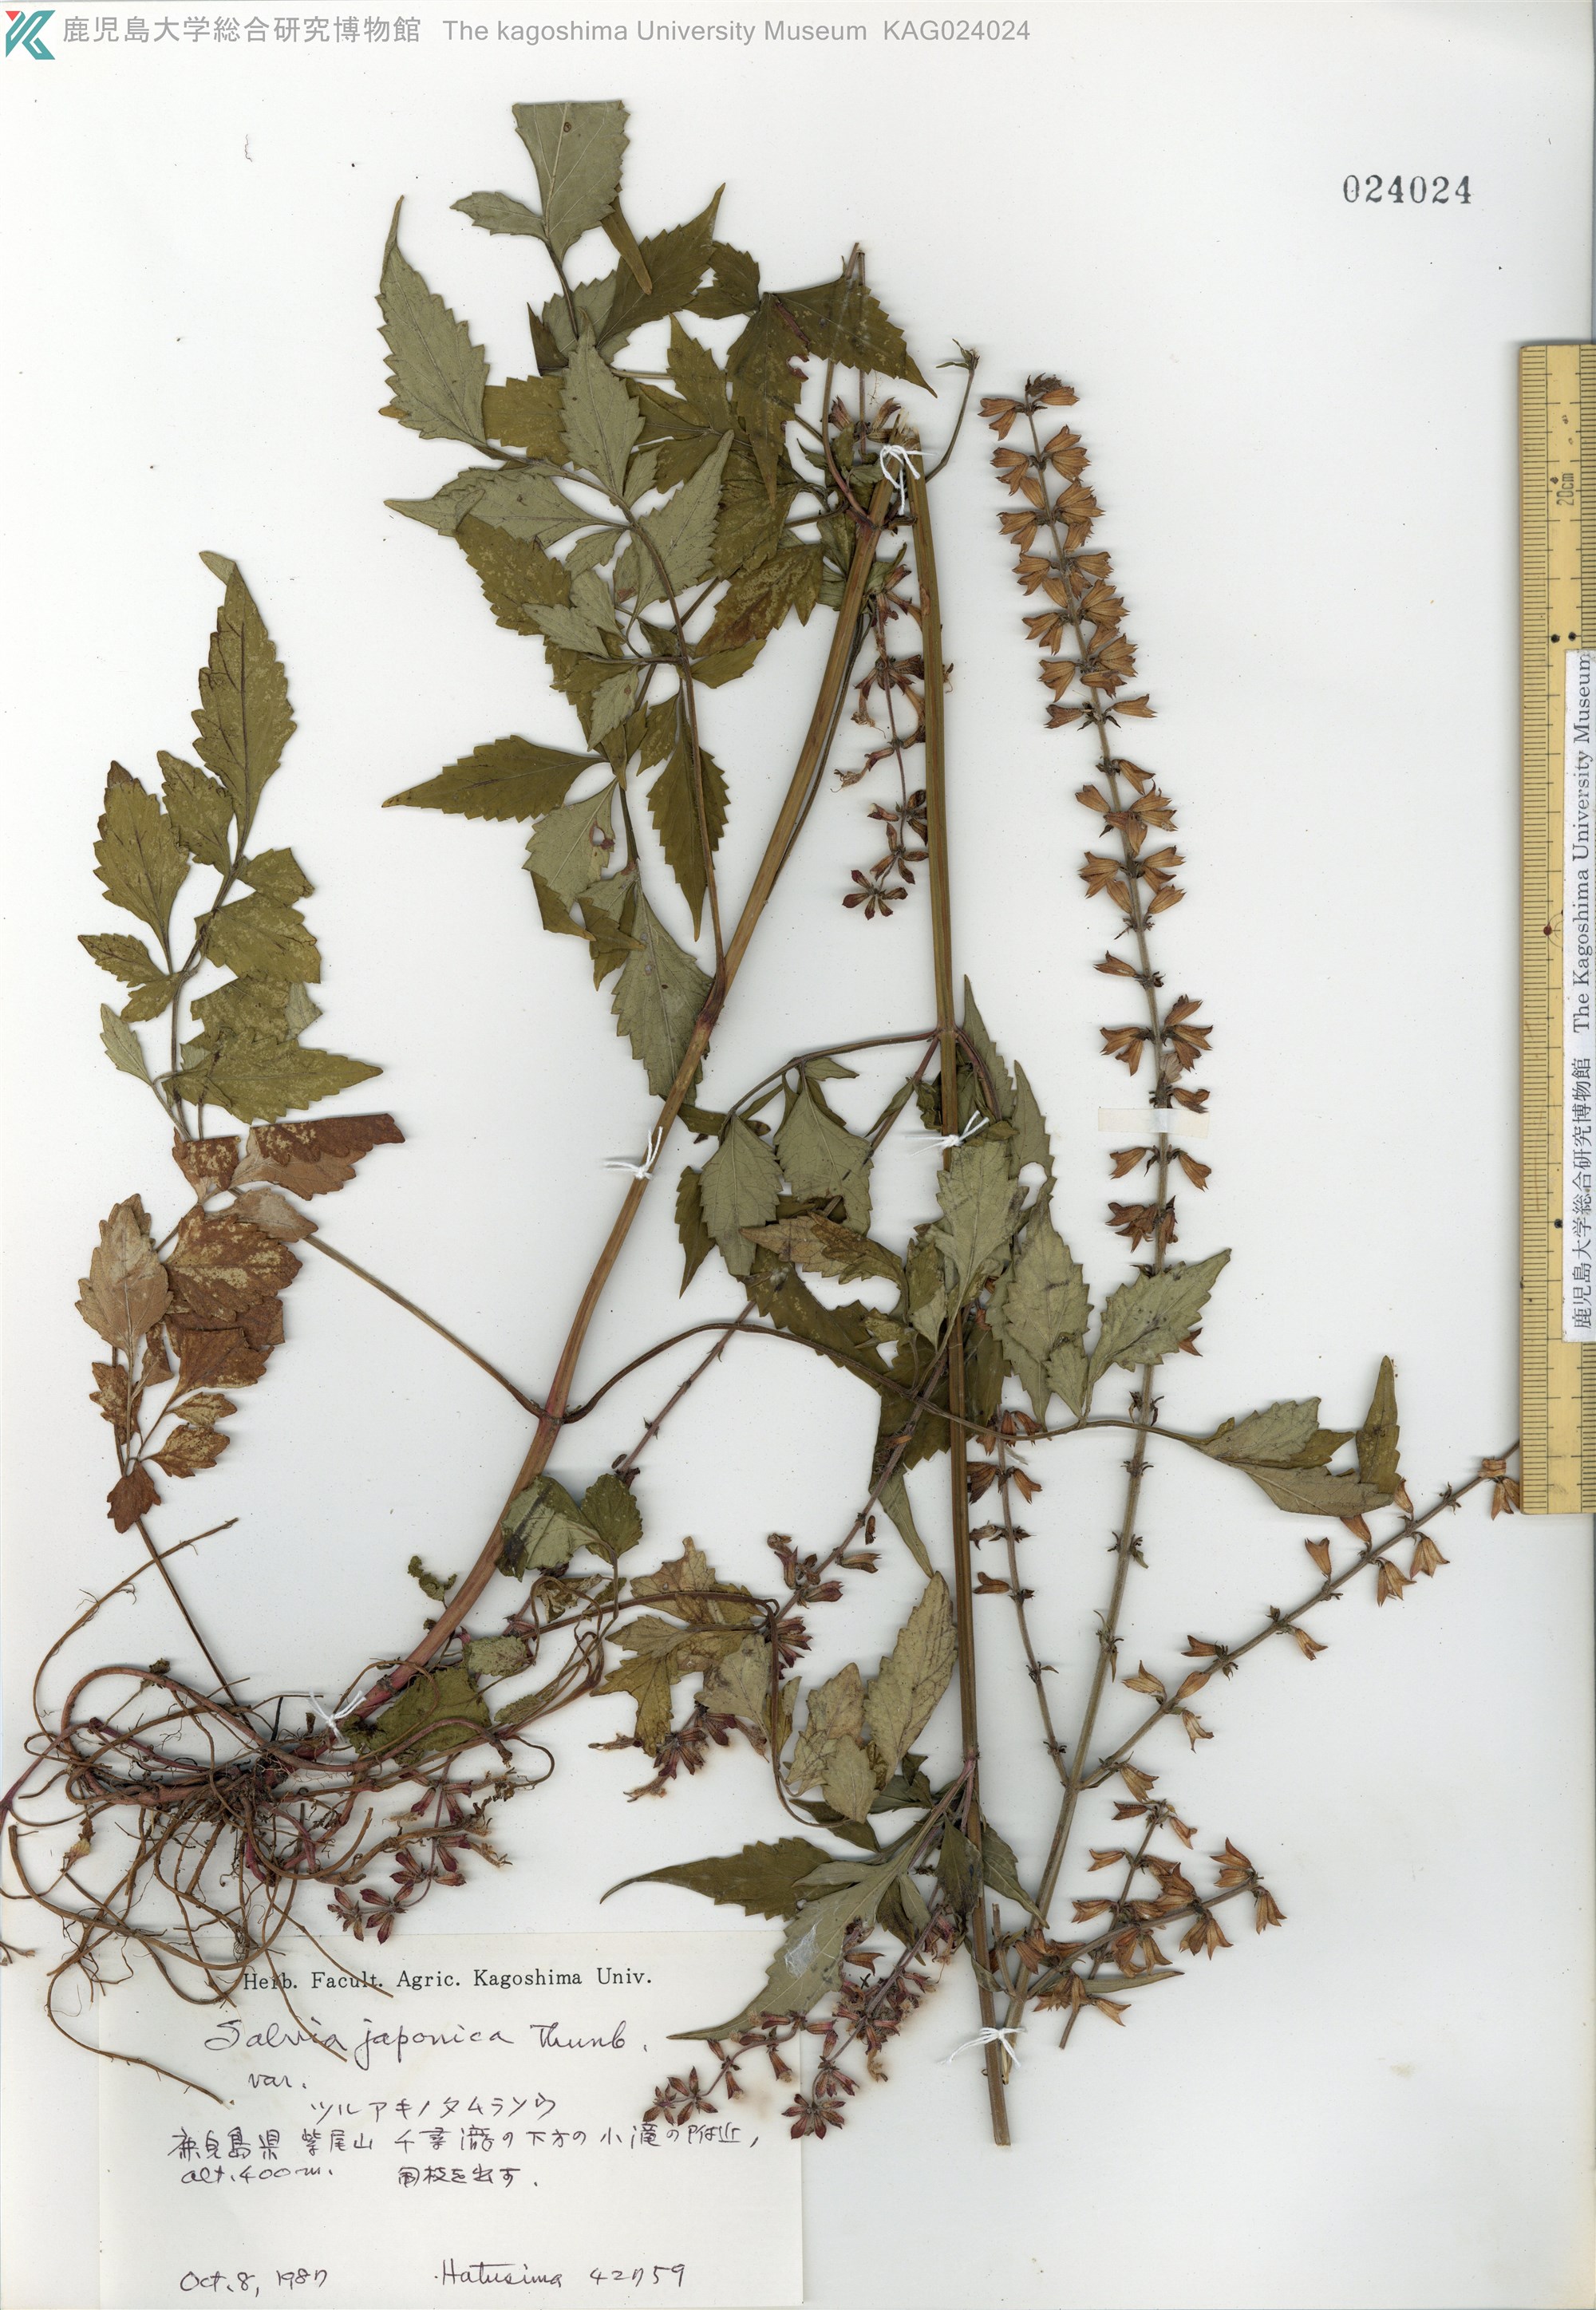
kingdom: Plantae
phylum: Tracheophyta
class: Magnoliopsida
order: Lamiales
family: Lamiaceae
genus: Salvia
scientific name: Salvia
